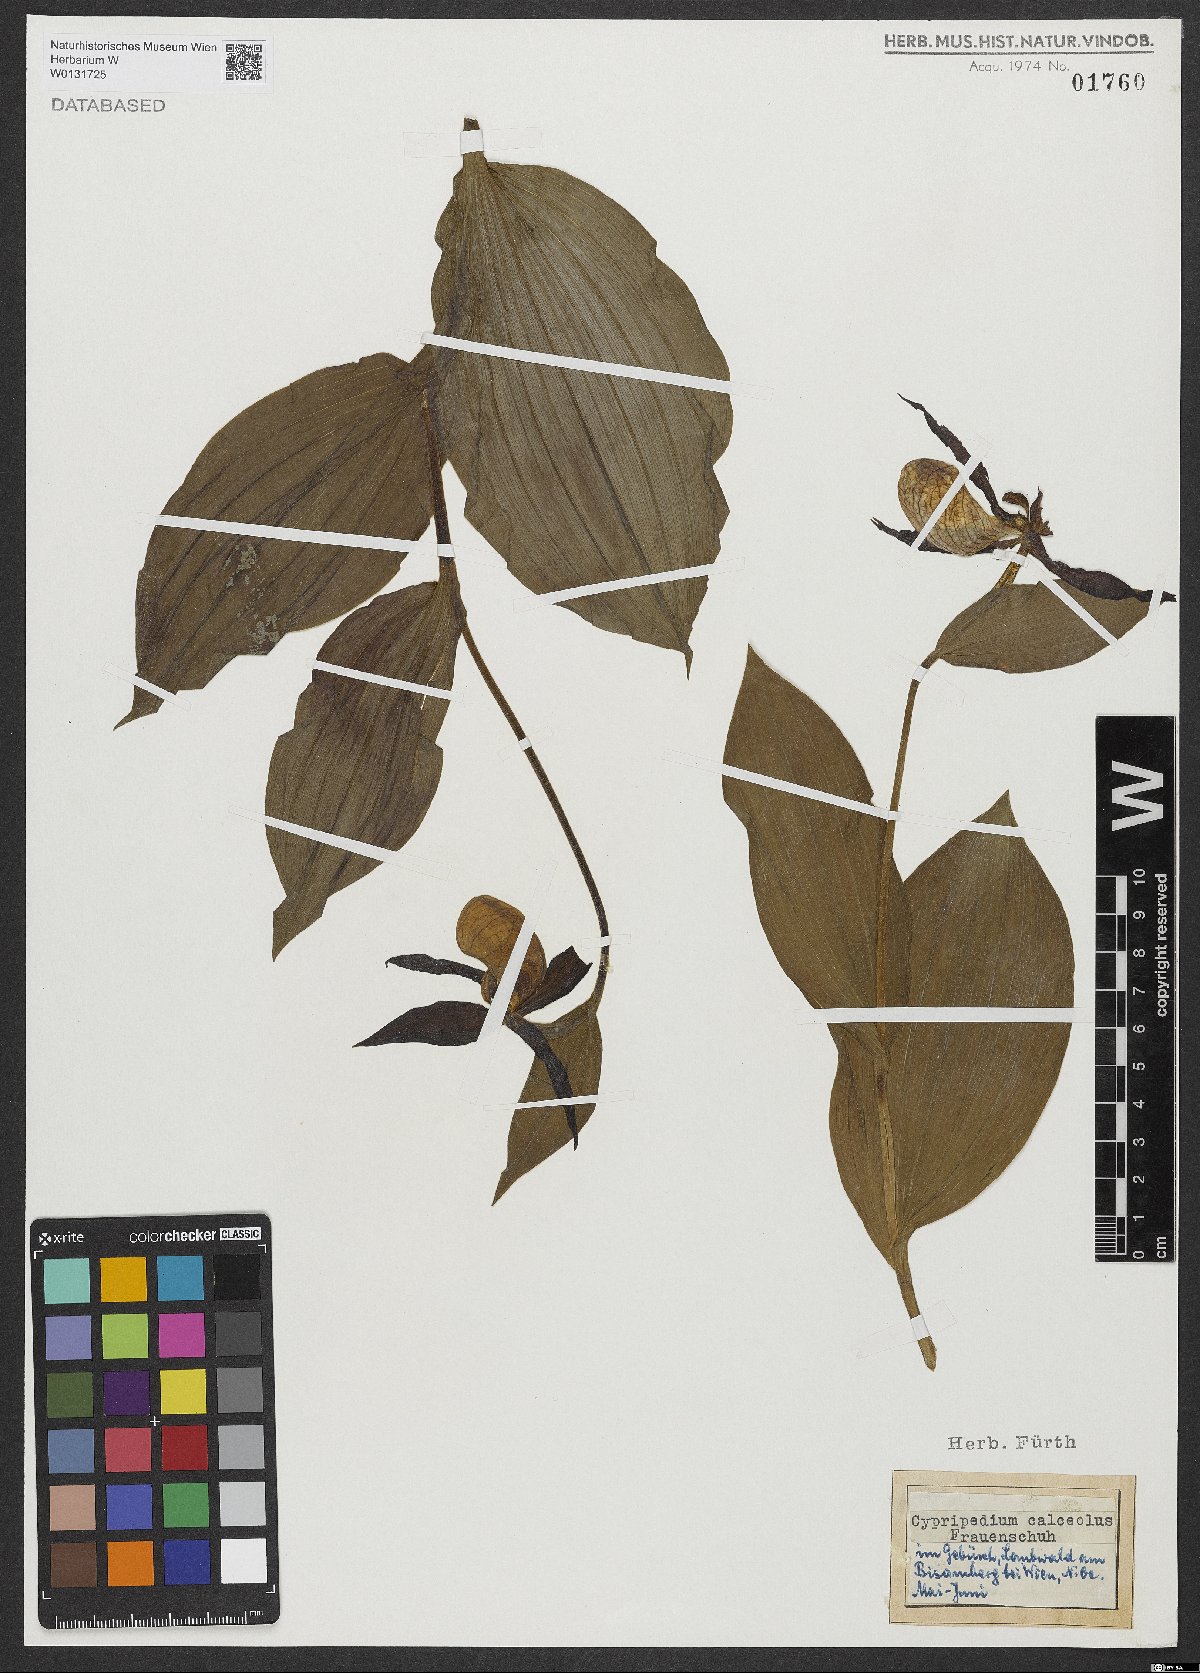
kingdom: Plantae
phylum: Tracheophyta
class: Liliopsida
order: Asparagales
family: Orchidaceae
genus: Cypripedium
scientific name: Cypripedium calceolus
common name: Lady's-slipper
